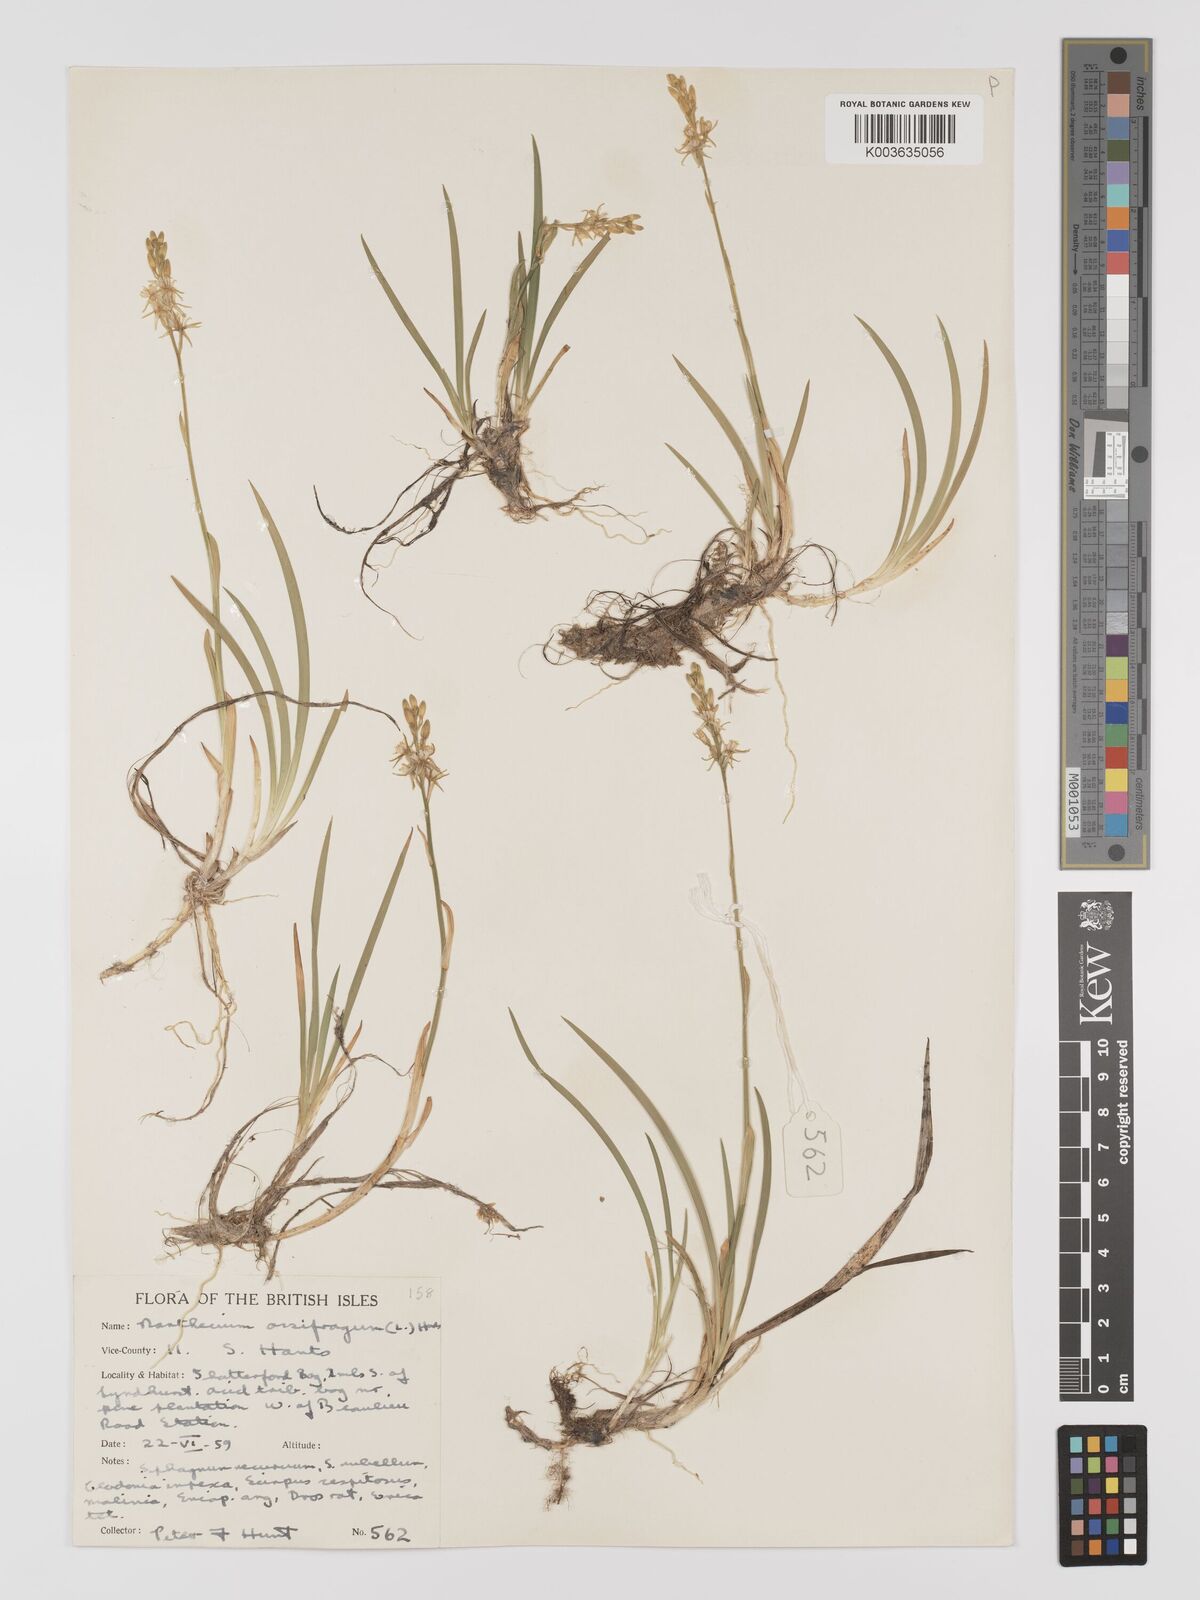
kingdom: Plantae
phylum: Tracheophyta
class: Liliopsida
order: Dioscoreales
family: Nartheciaceae
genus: Narthecium
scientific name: Narthecium
